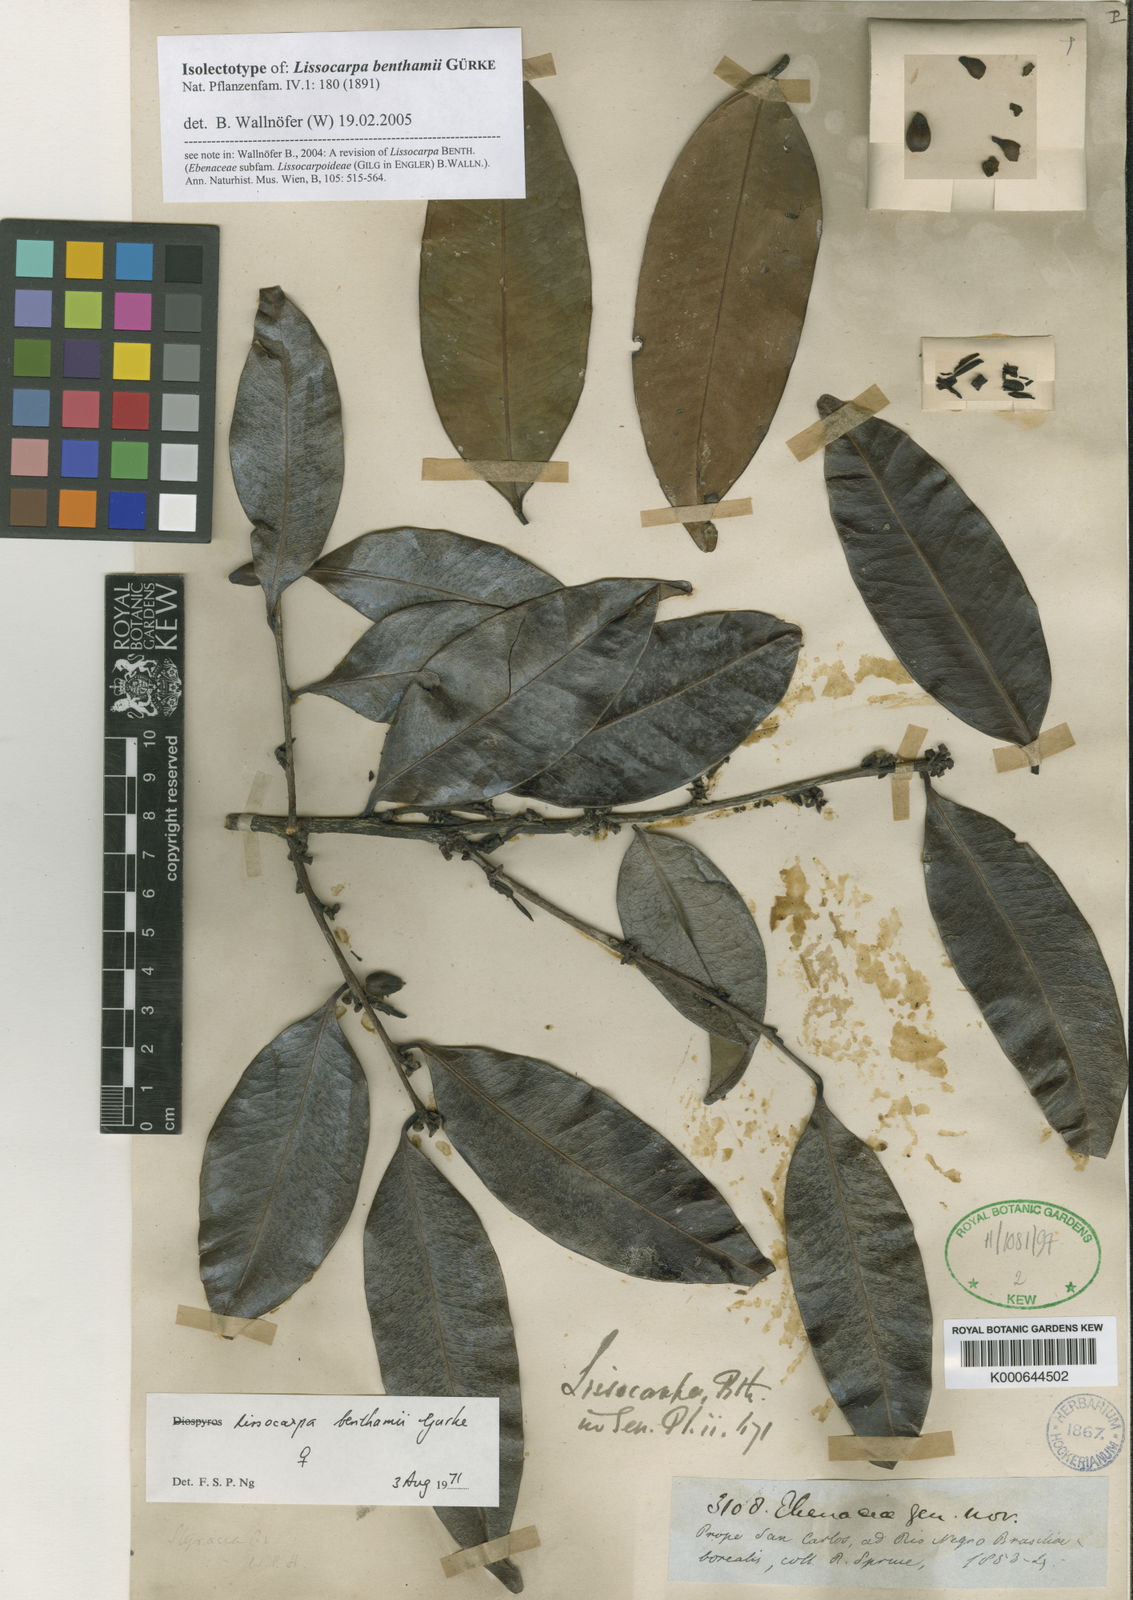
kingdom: Plantae
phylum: Tracheophyta
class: Magnoliopsida
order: Ericales
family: Ebenaceae
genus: Lissocarpa
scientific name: Lissocarpa
